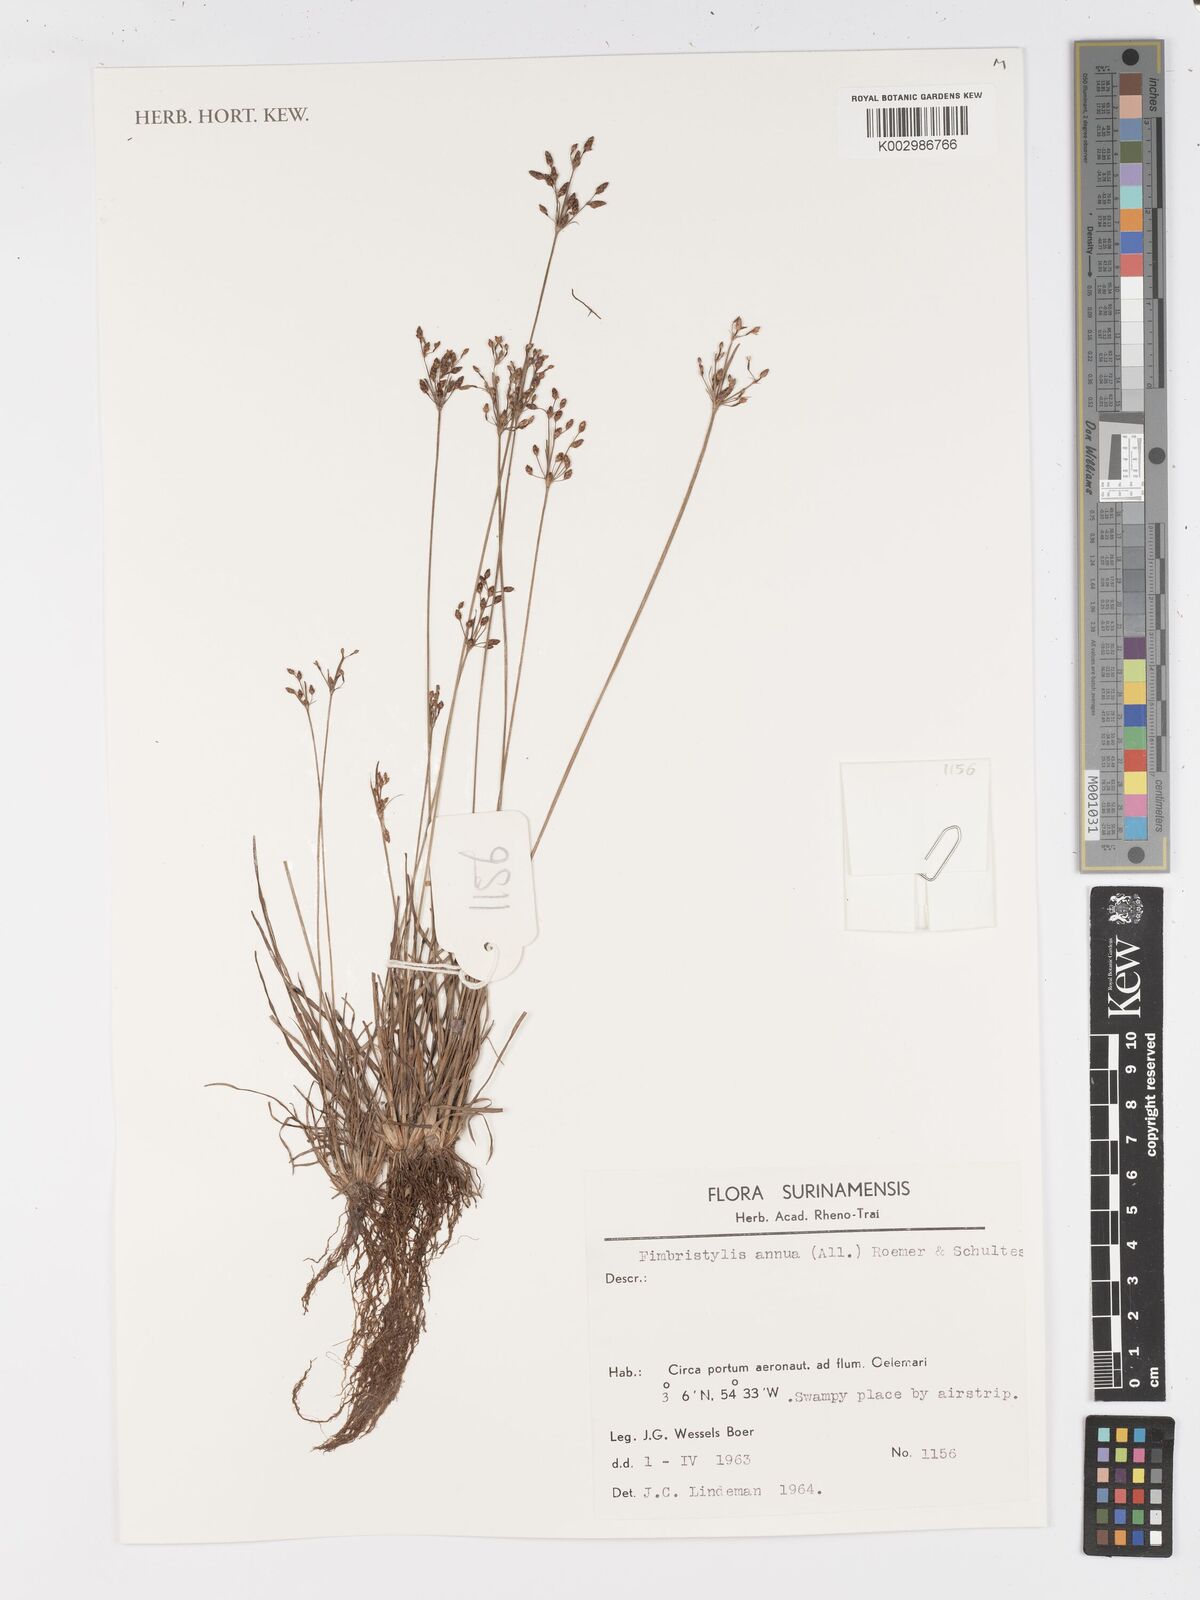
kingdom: Plantae
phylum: Tracheophyta
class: Liliopsida
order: Poales
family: Cyperaceae
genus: Fimbristylis
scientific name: Fimbristylis dichotoma
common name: Forked fimbry
